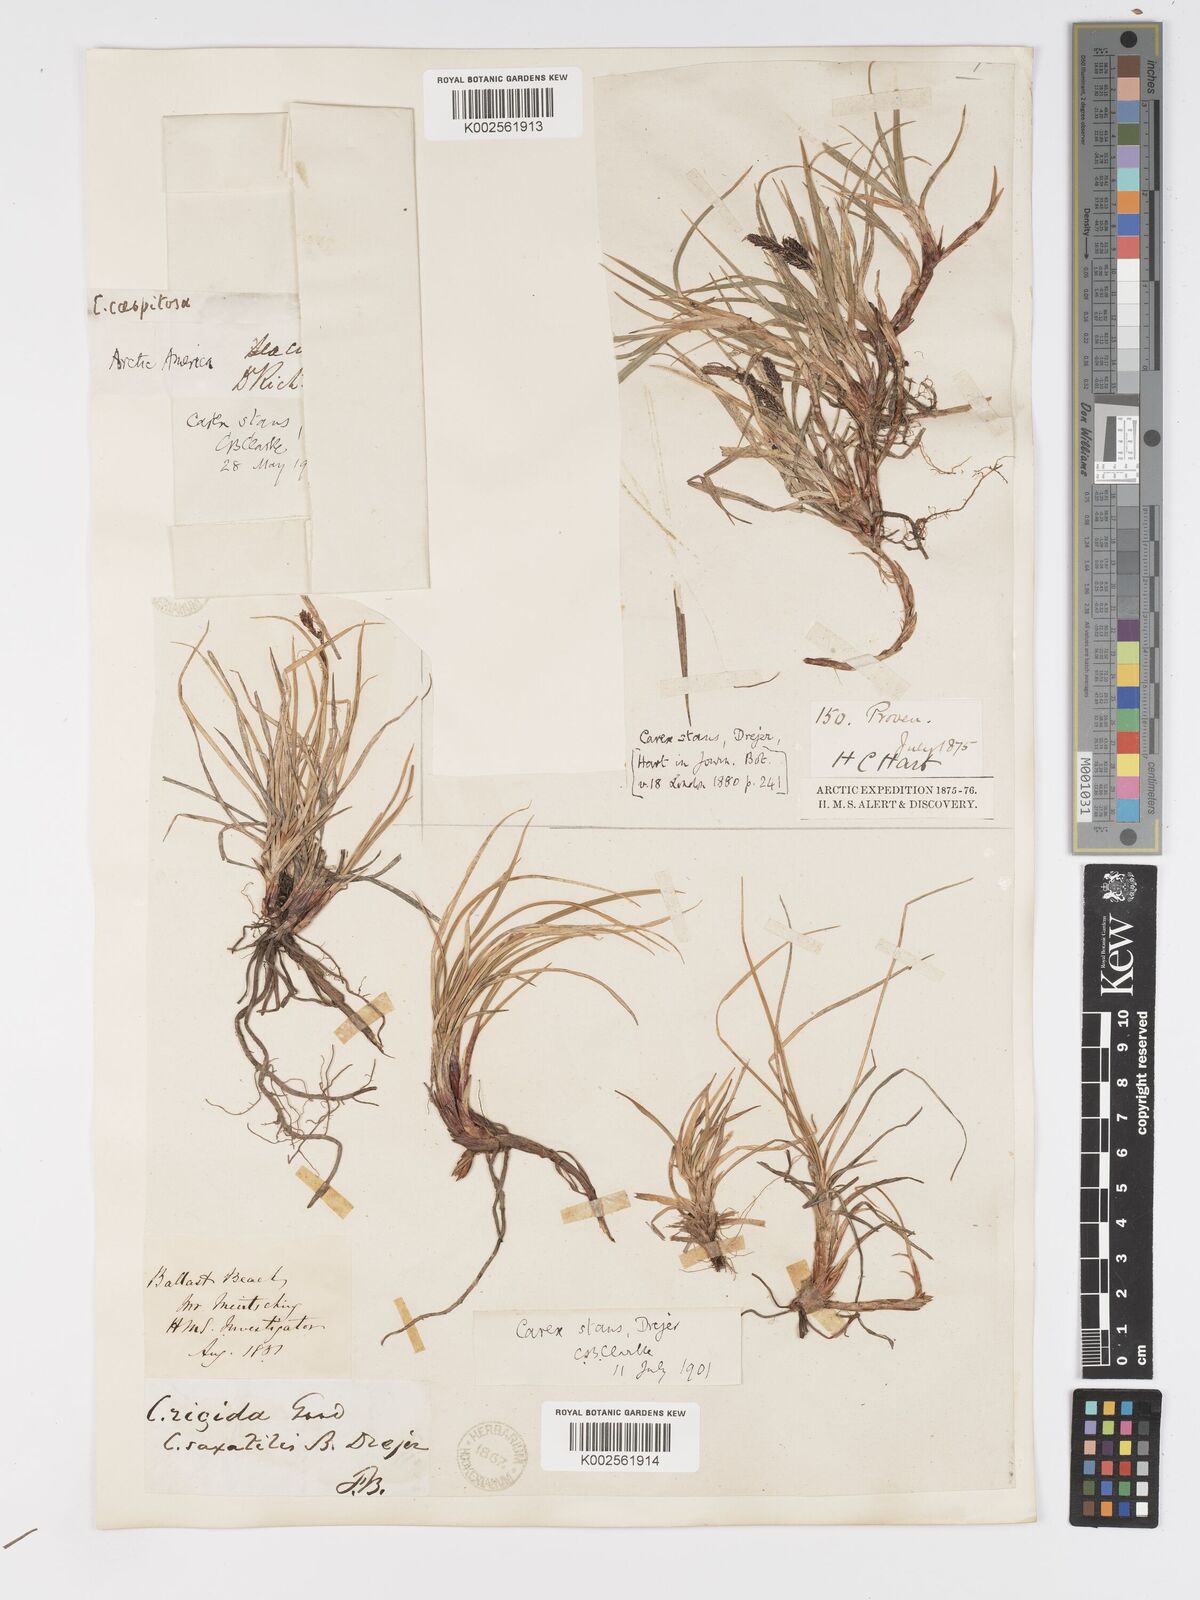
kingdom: Plantae
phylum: Tracheophyta
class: Liliopsida
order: Poales
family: Cyperaceae
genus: Carex
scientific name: Carex bigelowii
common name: Stiff sedge
